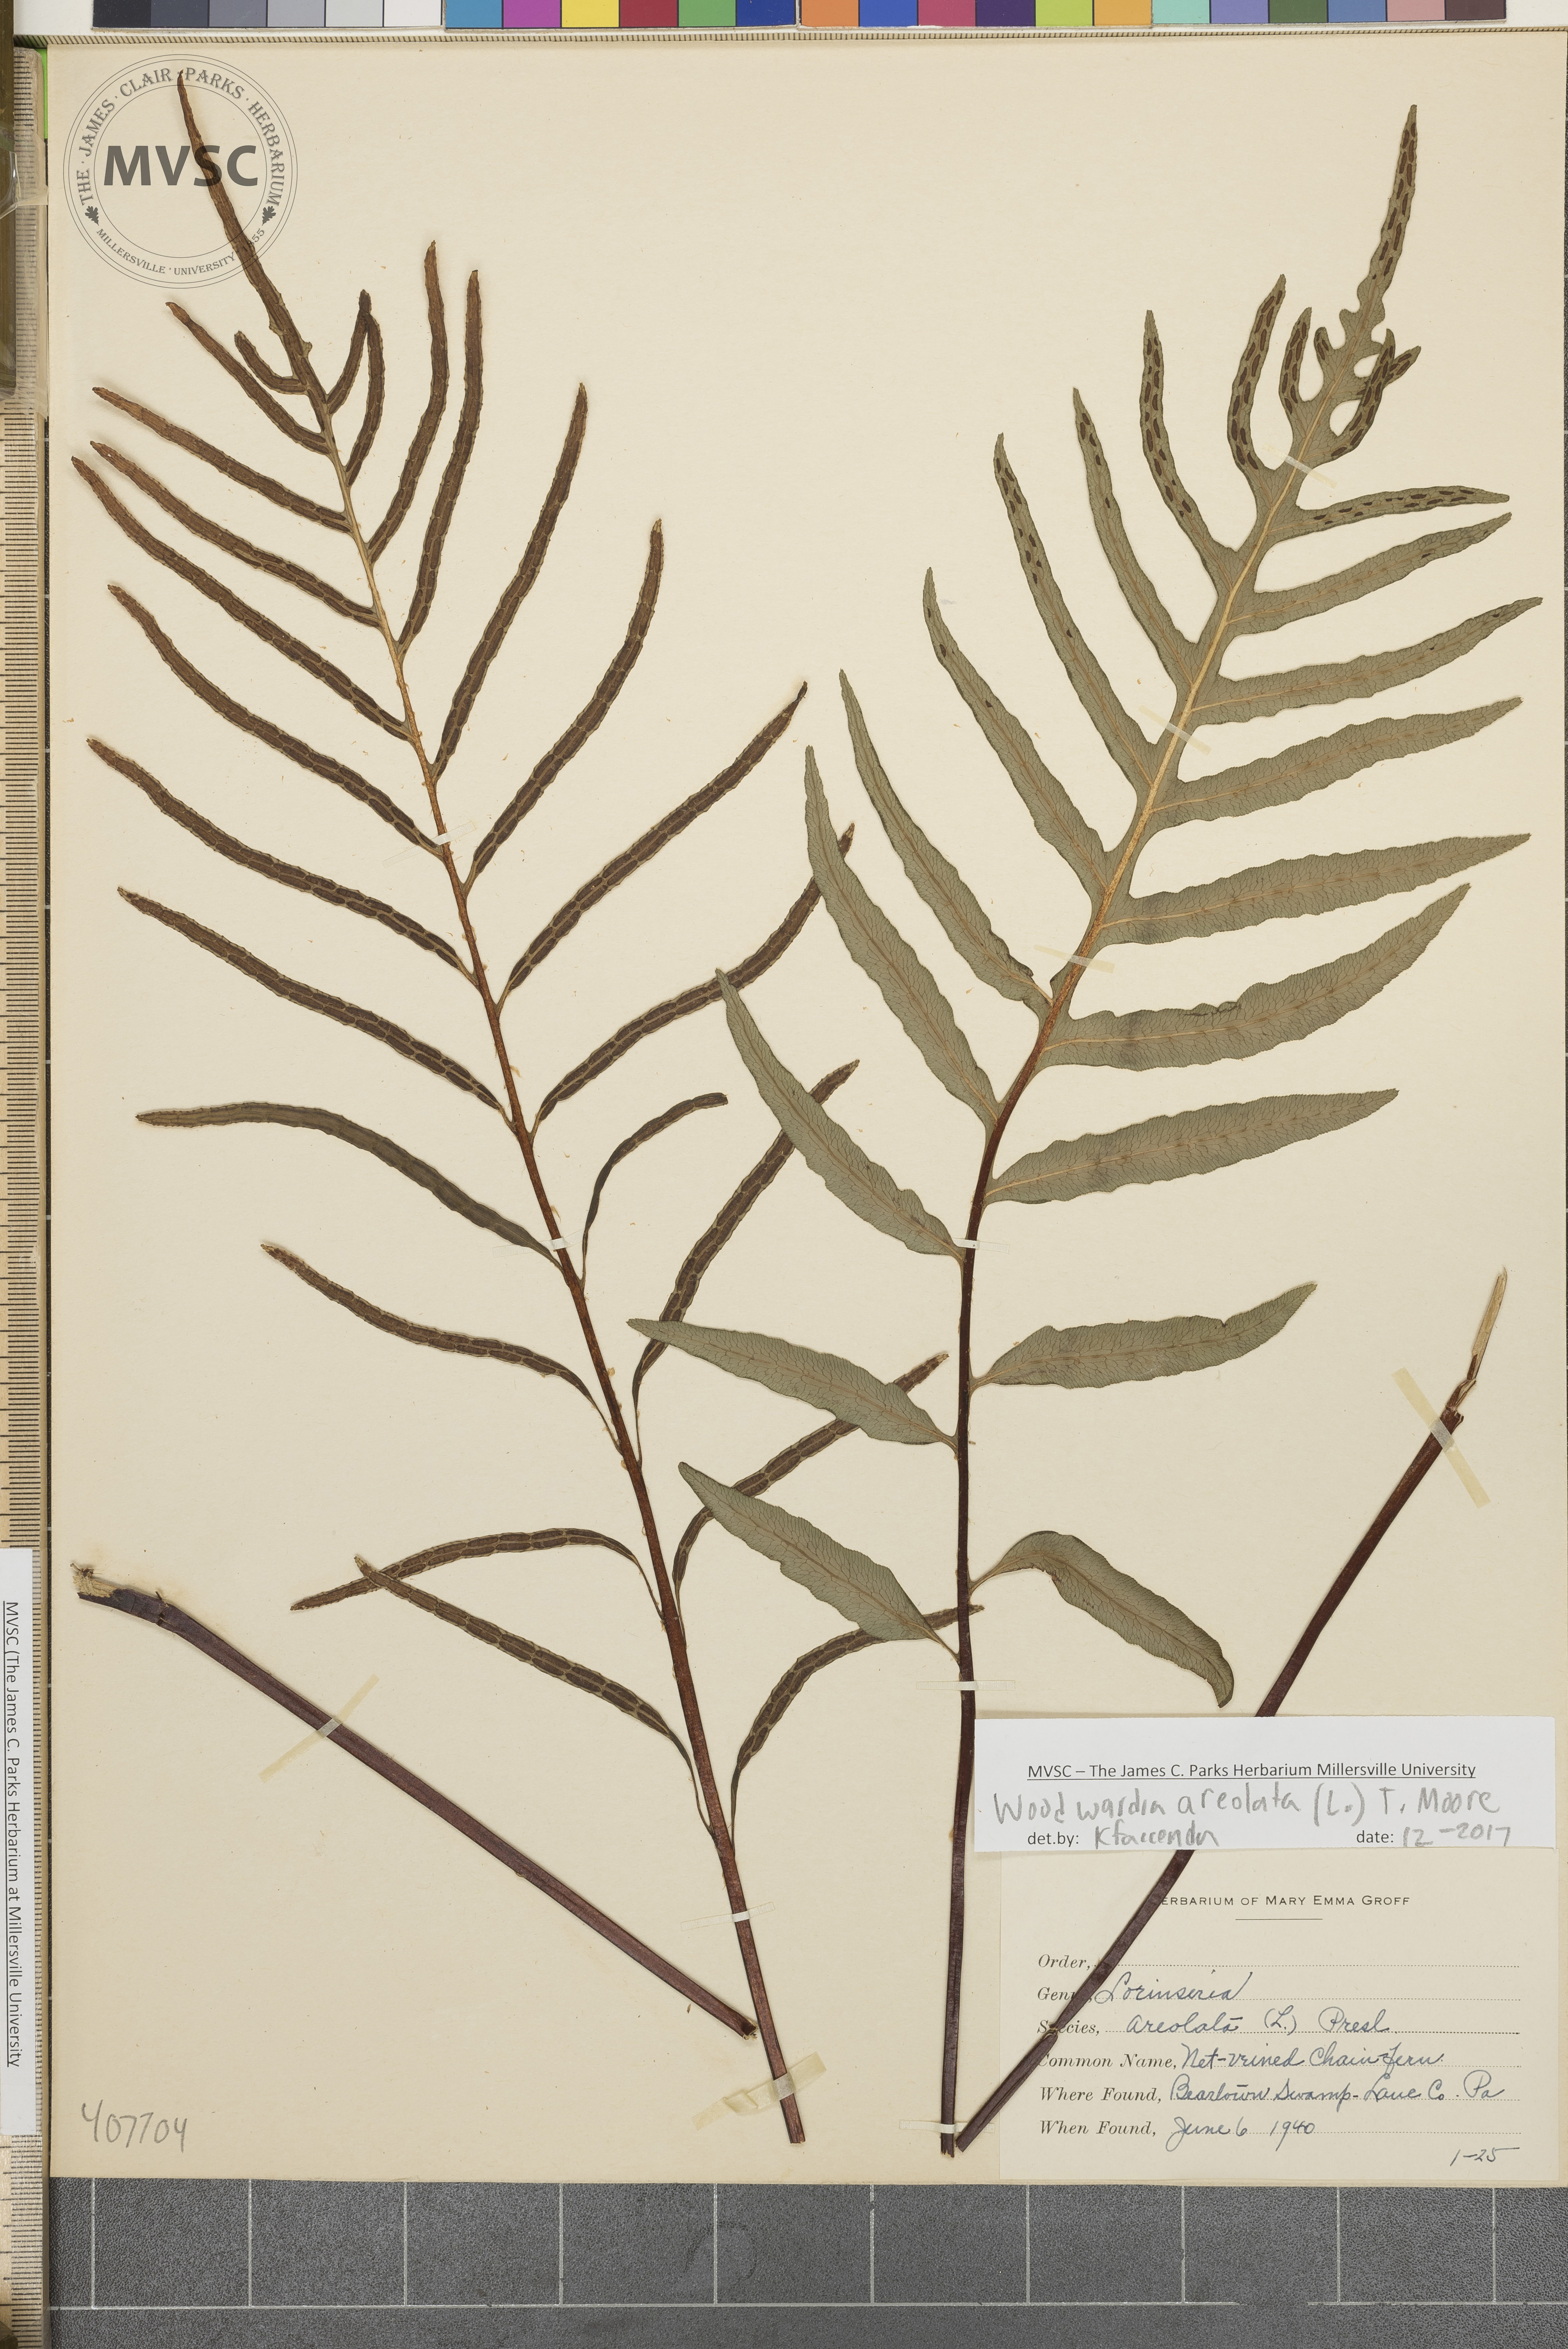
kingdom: Plantae
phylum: Tracheophyta
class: Polypodiopsida
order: Polypodiales
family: Blechnaceae
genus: Lorinseria
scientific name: Lorinseria areolata
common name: Dwarf chain fern
